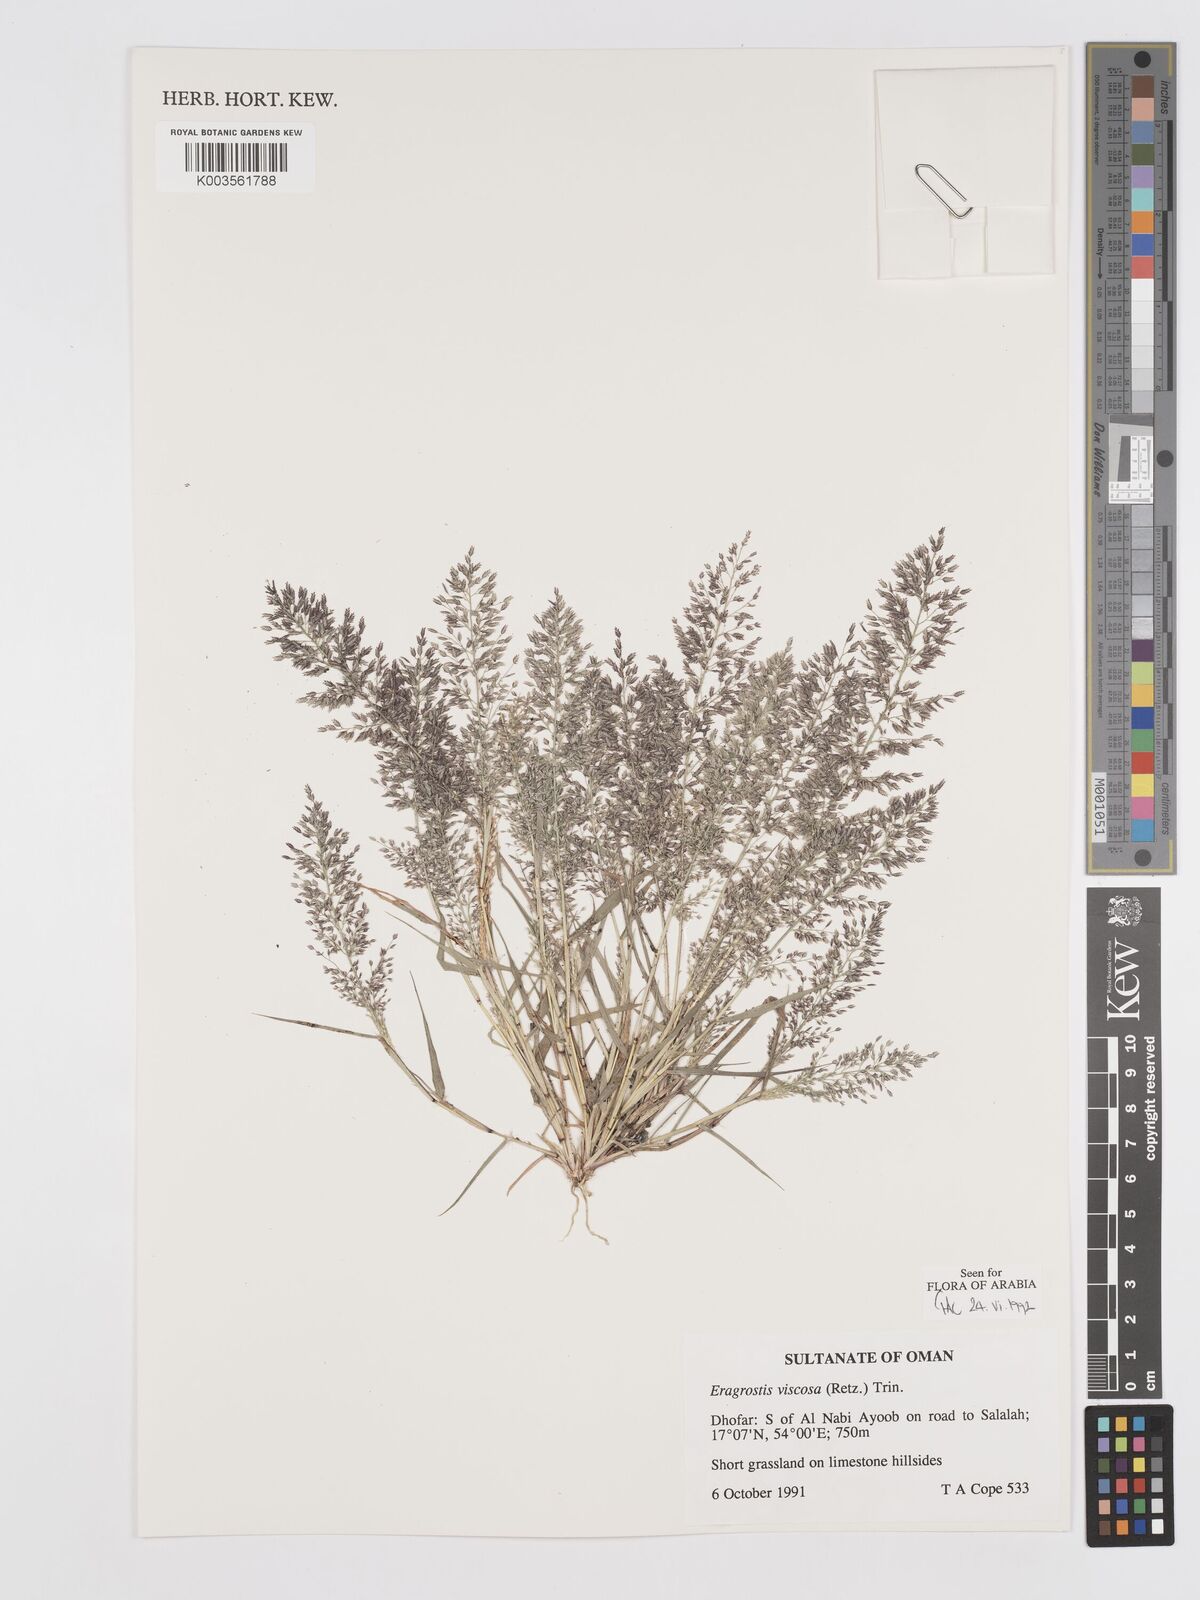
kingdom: Plantae
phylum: Tracheophyta
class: Liliopsida
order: Poales
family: Poaceae
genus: Eragrostis
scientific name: Eragrostis viscosa
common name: Sticky love grass
